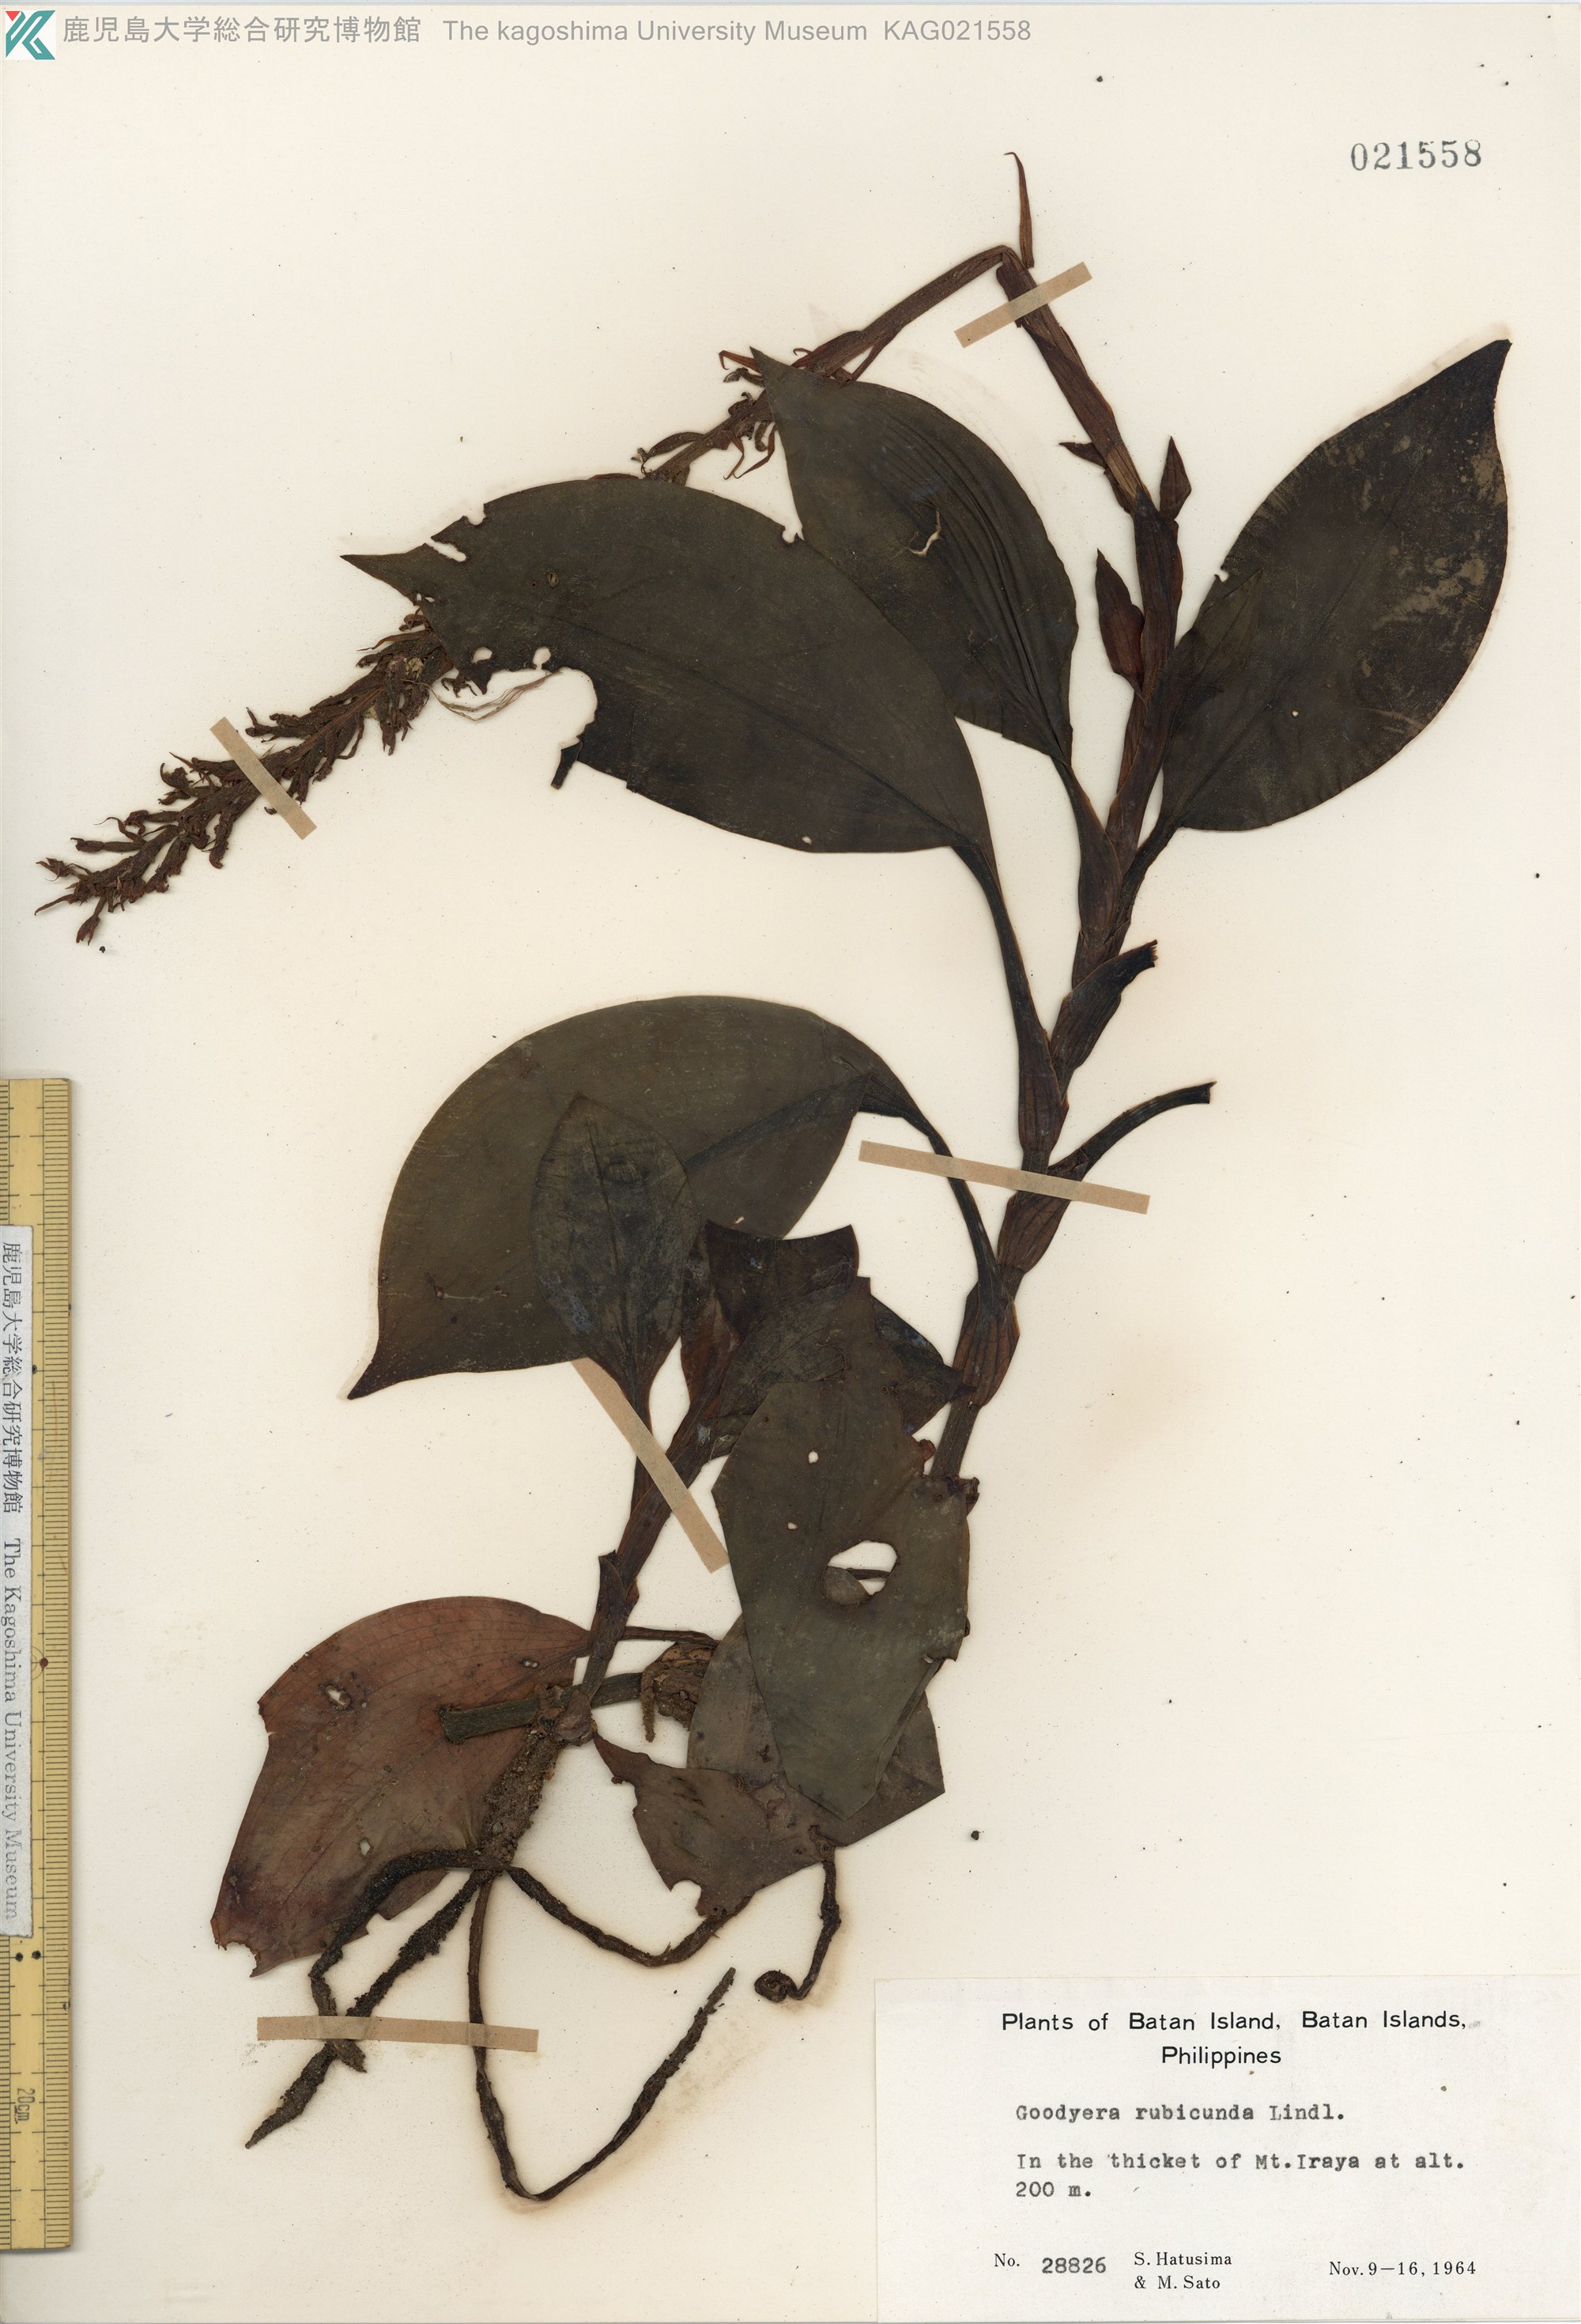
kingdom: Plantae
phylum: Tracheophyta
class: Liliopsida
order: Asparagales
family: Orchidaceae
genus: Goodyera
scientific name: Goodyera rubicunda
